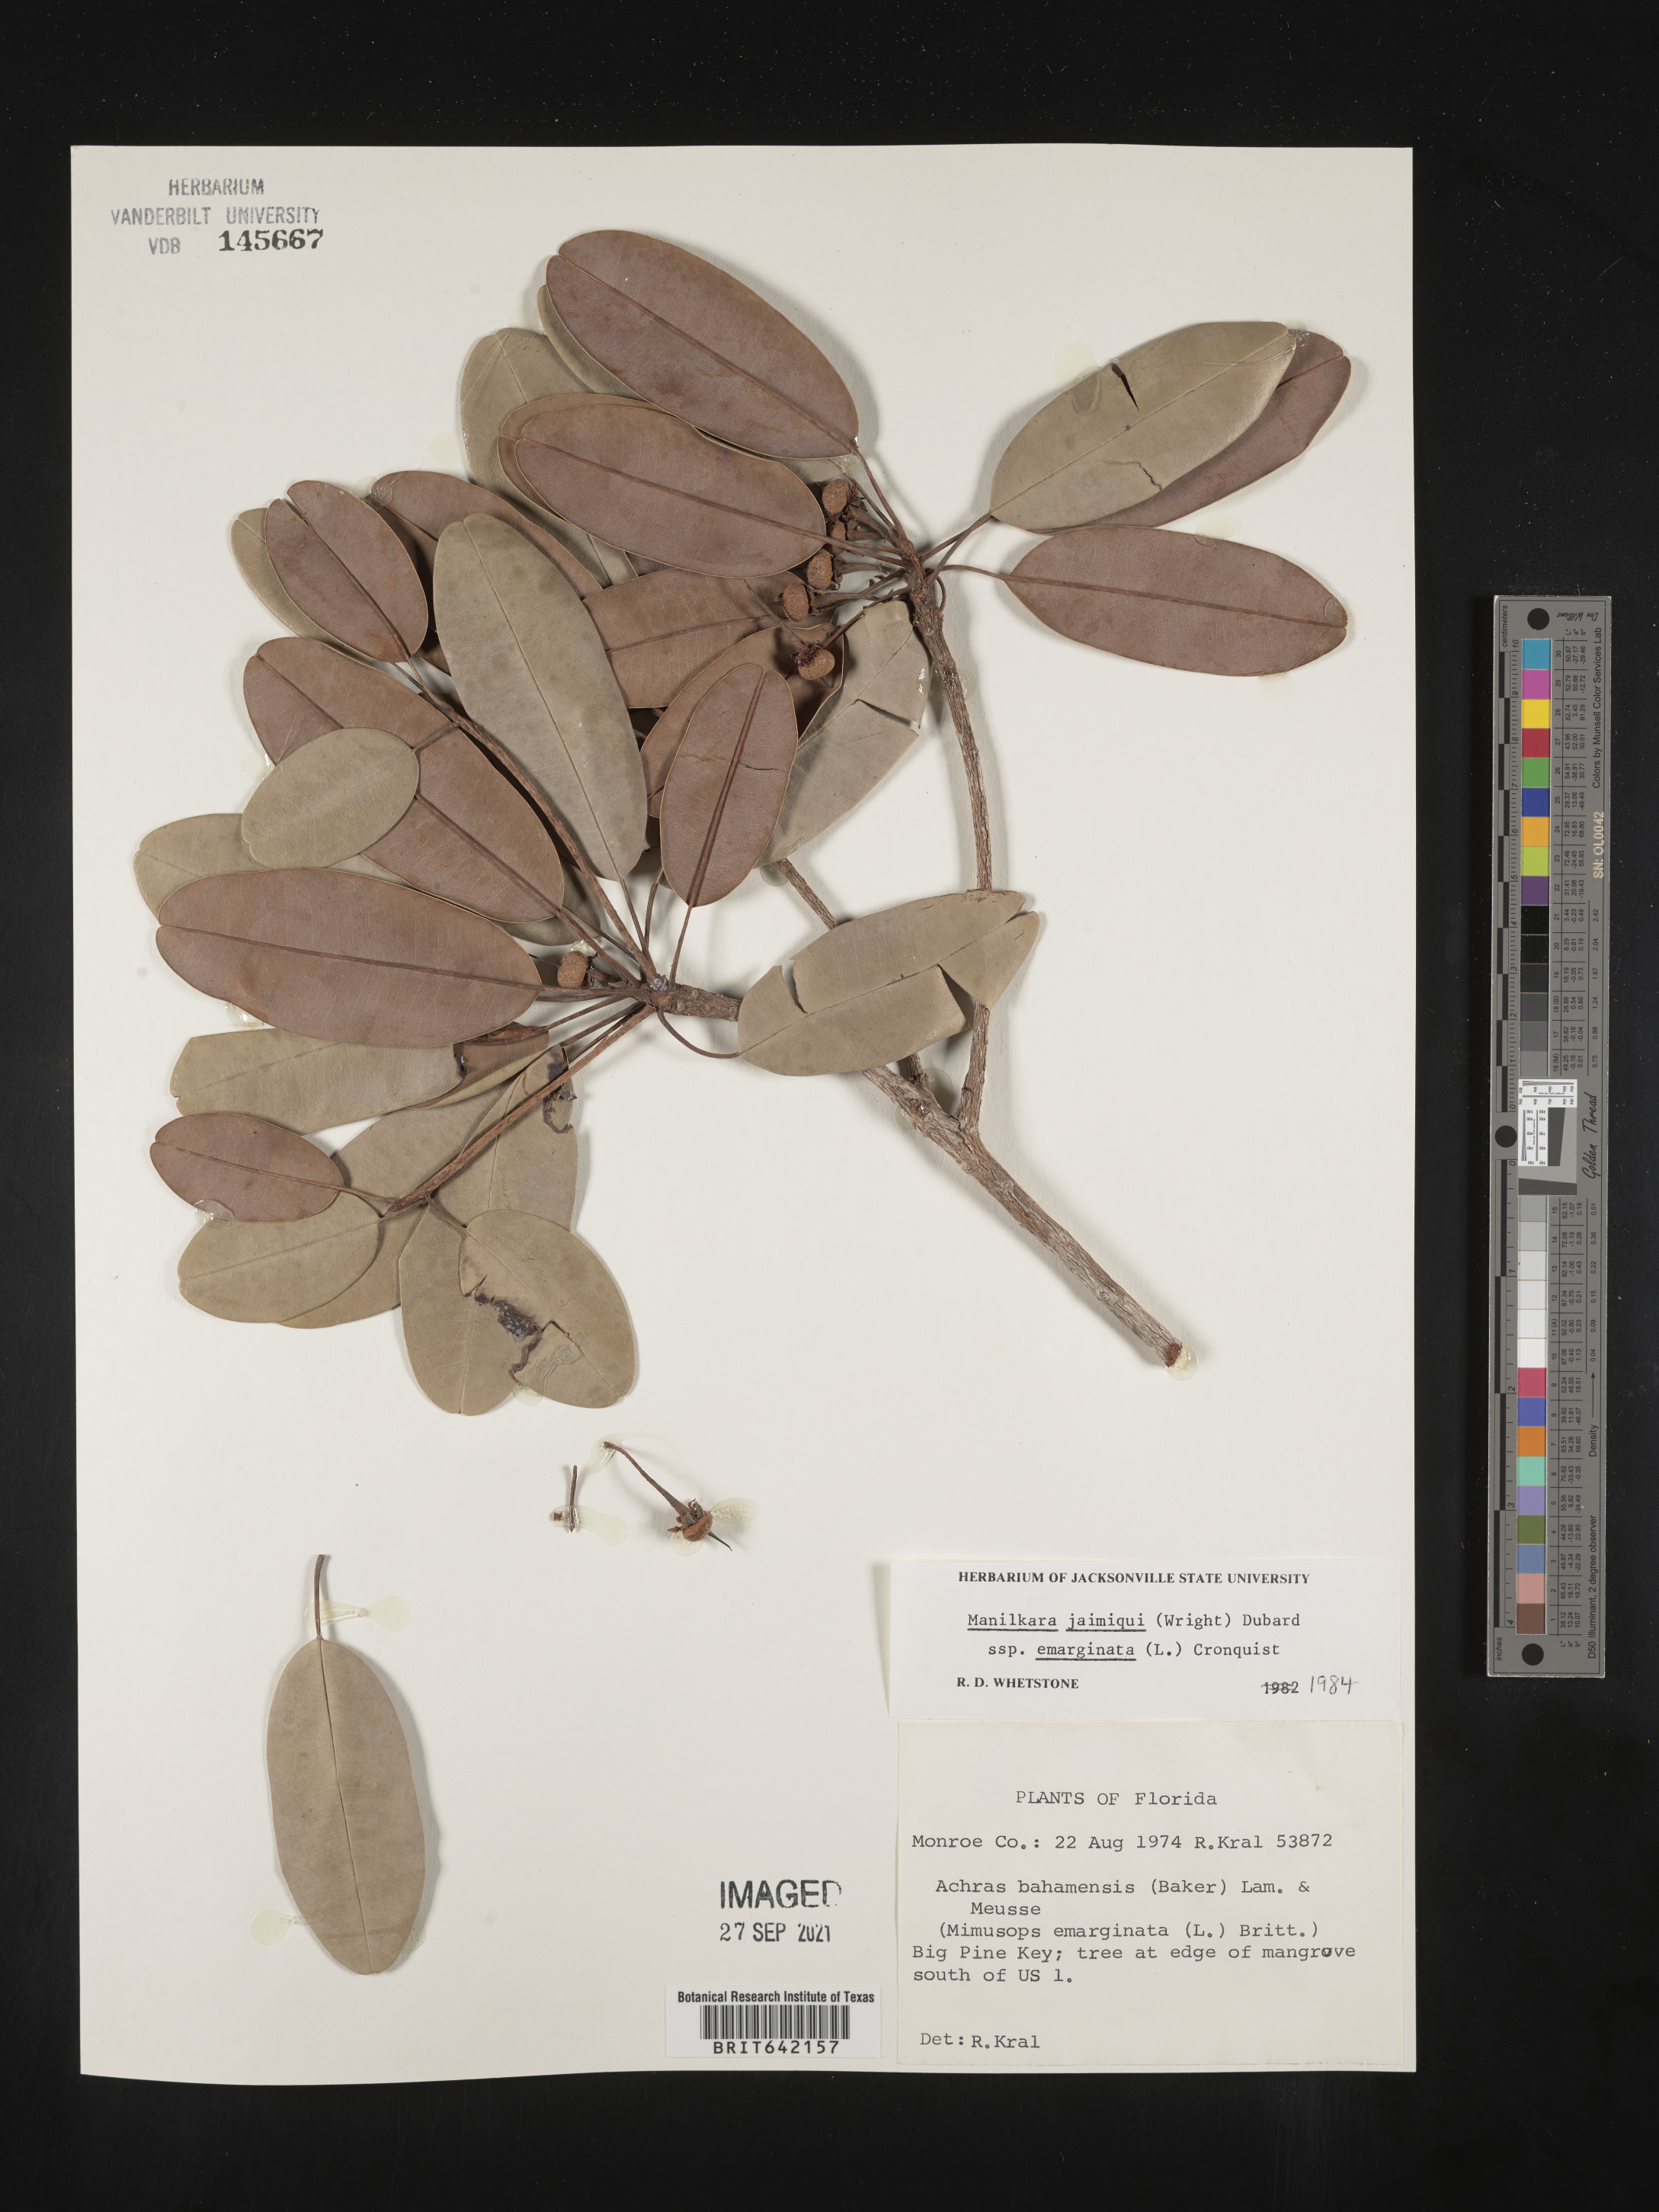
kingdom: Plantae
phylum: Tracheophyta
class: Magnoliopsida
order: Ericales
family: Sapotaceae
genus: Manilkara
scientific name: Manilkara jaimiqui
